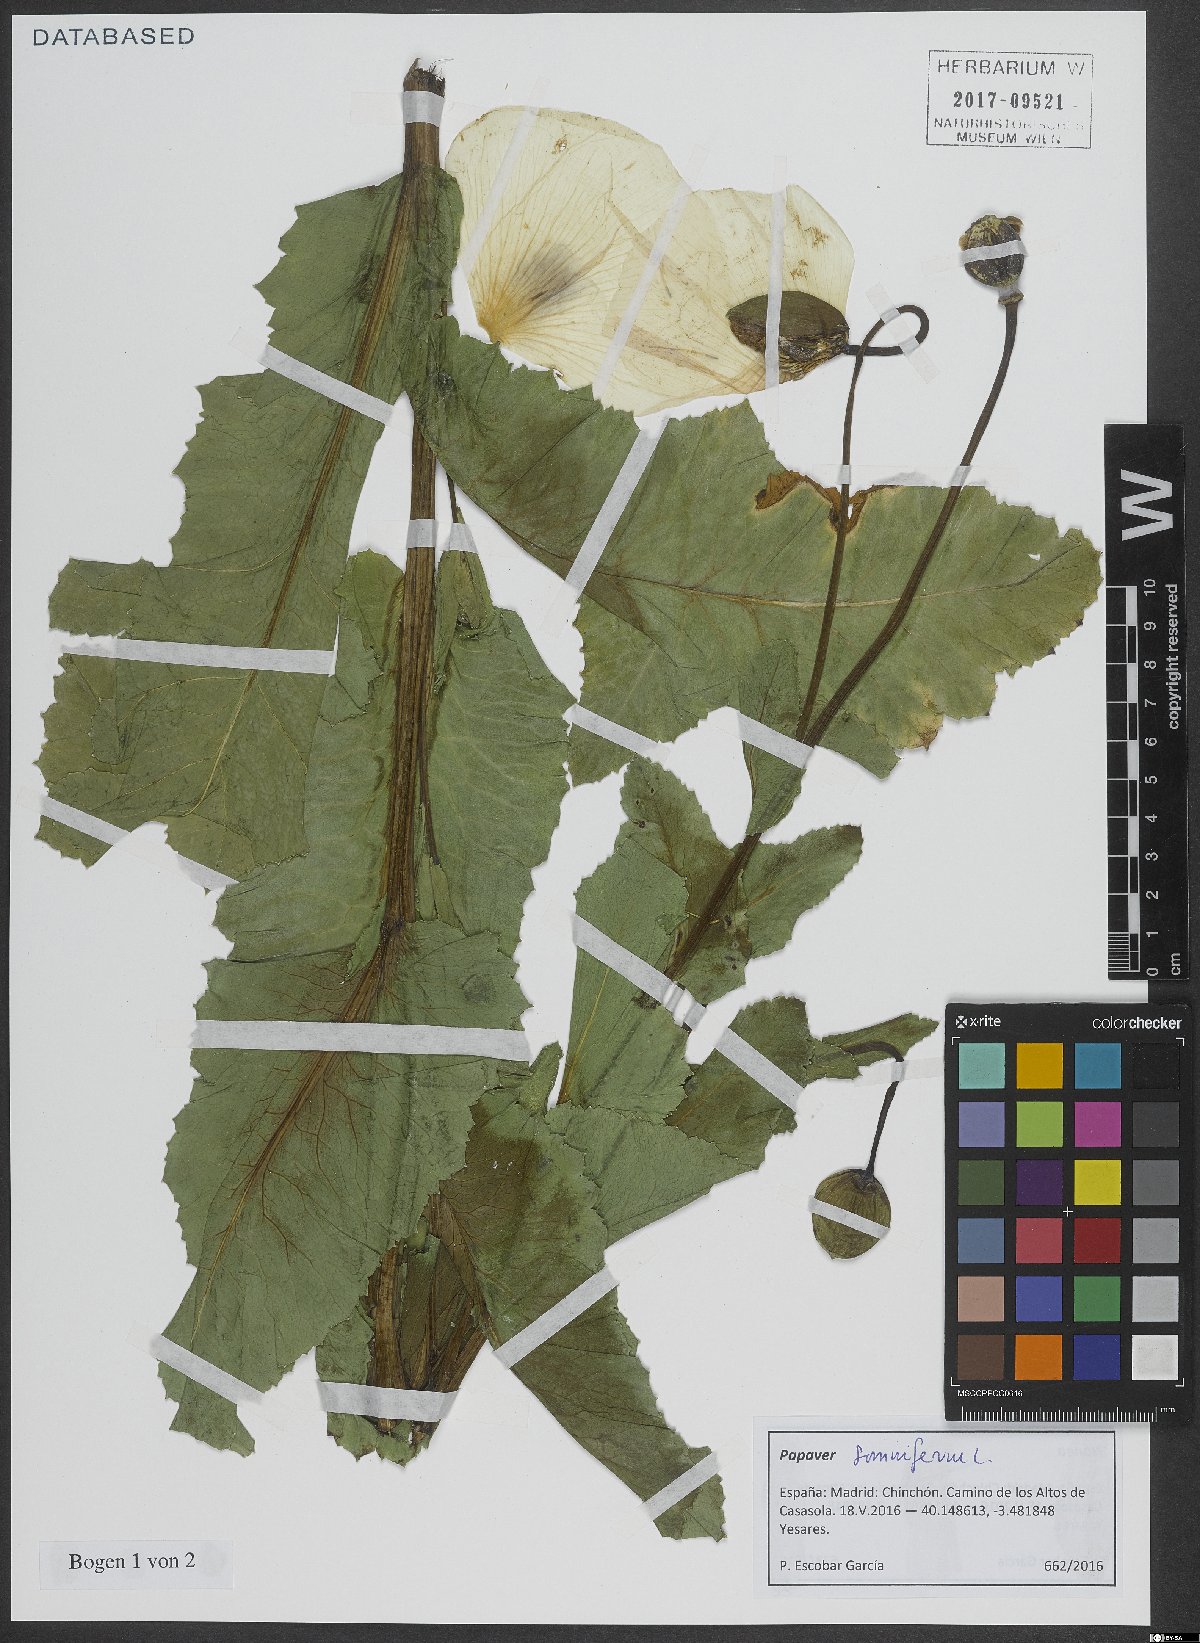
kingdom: Plantae
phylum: Tracheophyta
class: Magnoliopsida
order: Ranunculales
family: Papaveraceae
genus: Papaver
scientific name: Papaver somniferum
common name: Opium poppy
